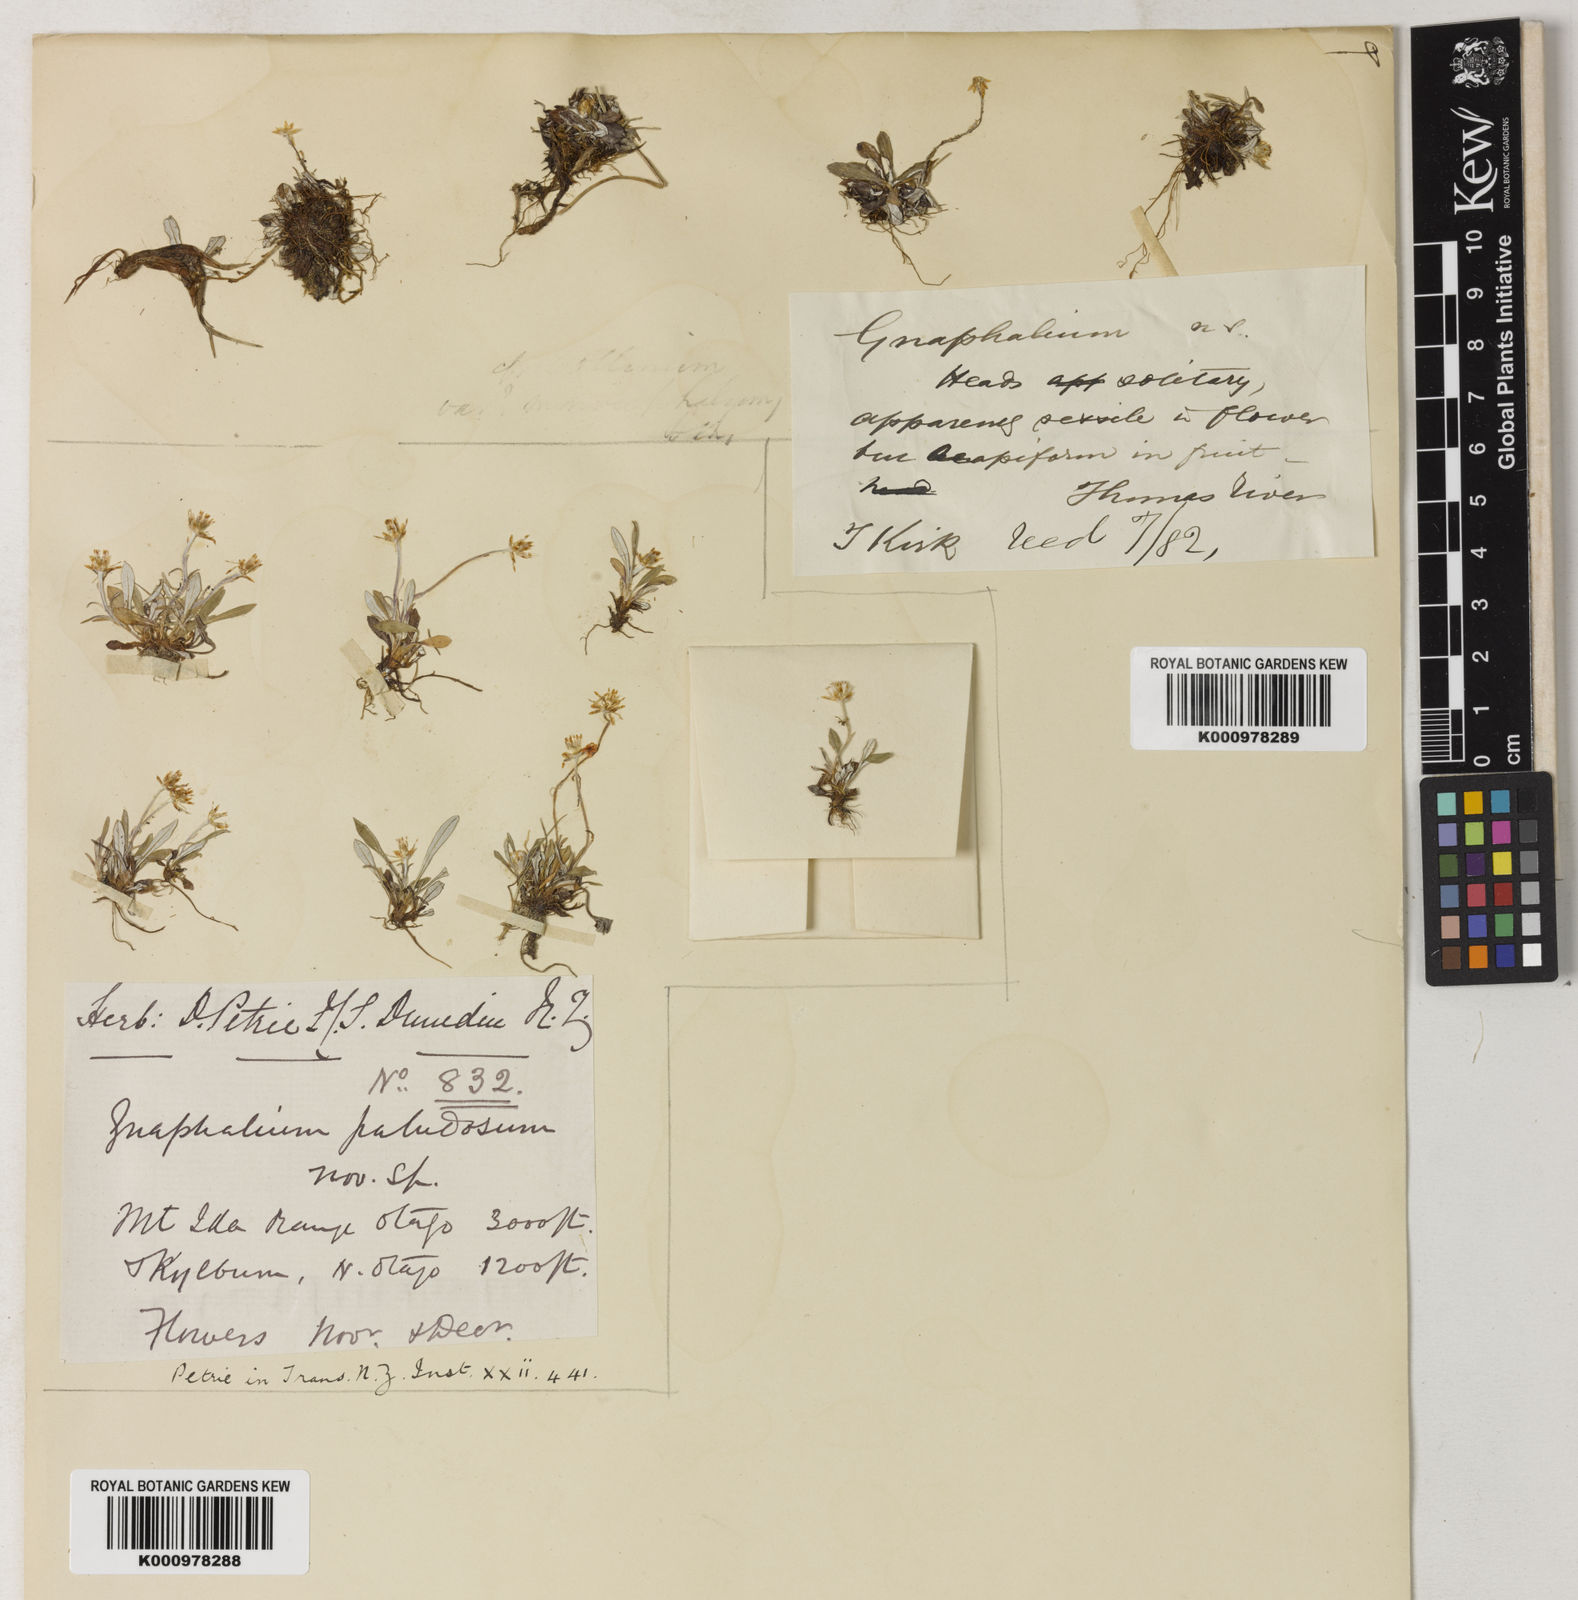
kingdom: Plantae
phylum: Tracheophyta
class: Magnoliopsida
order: Asterales
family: Asteraceae
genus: Euchiton
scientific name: Euchiton paludosus
